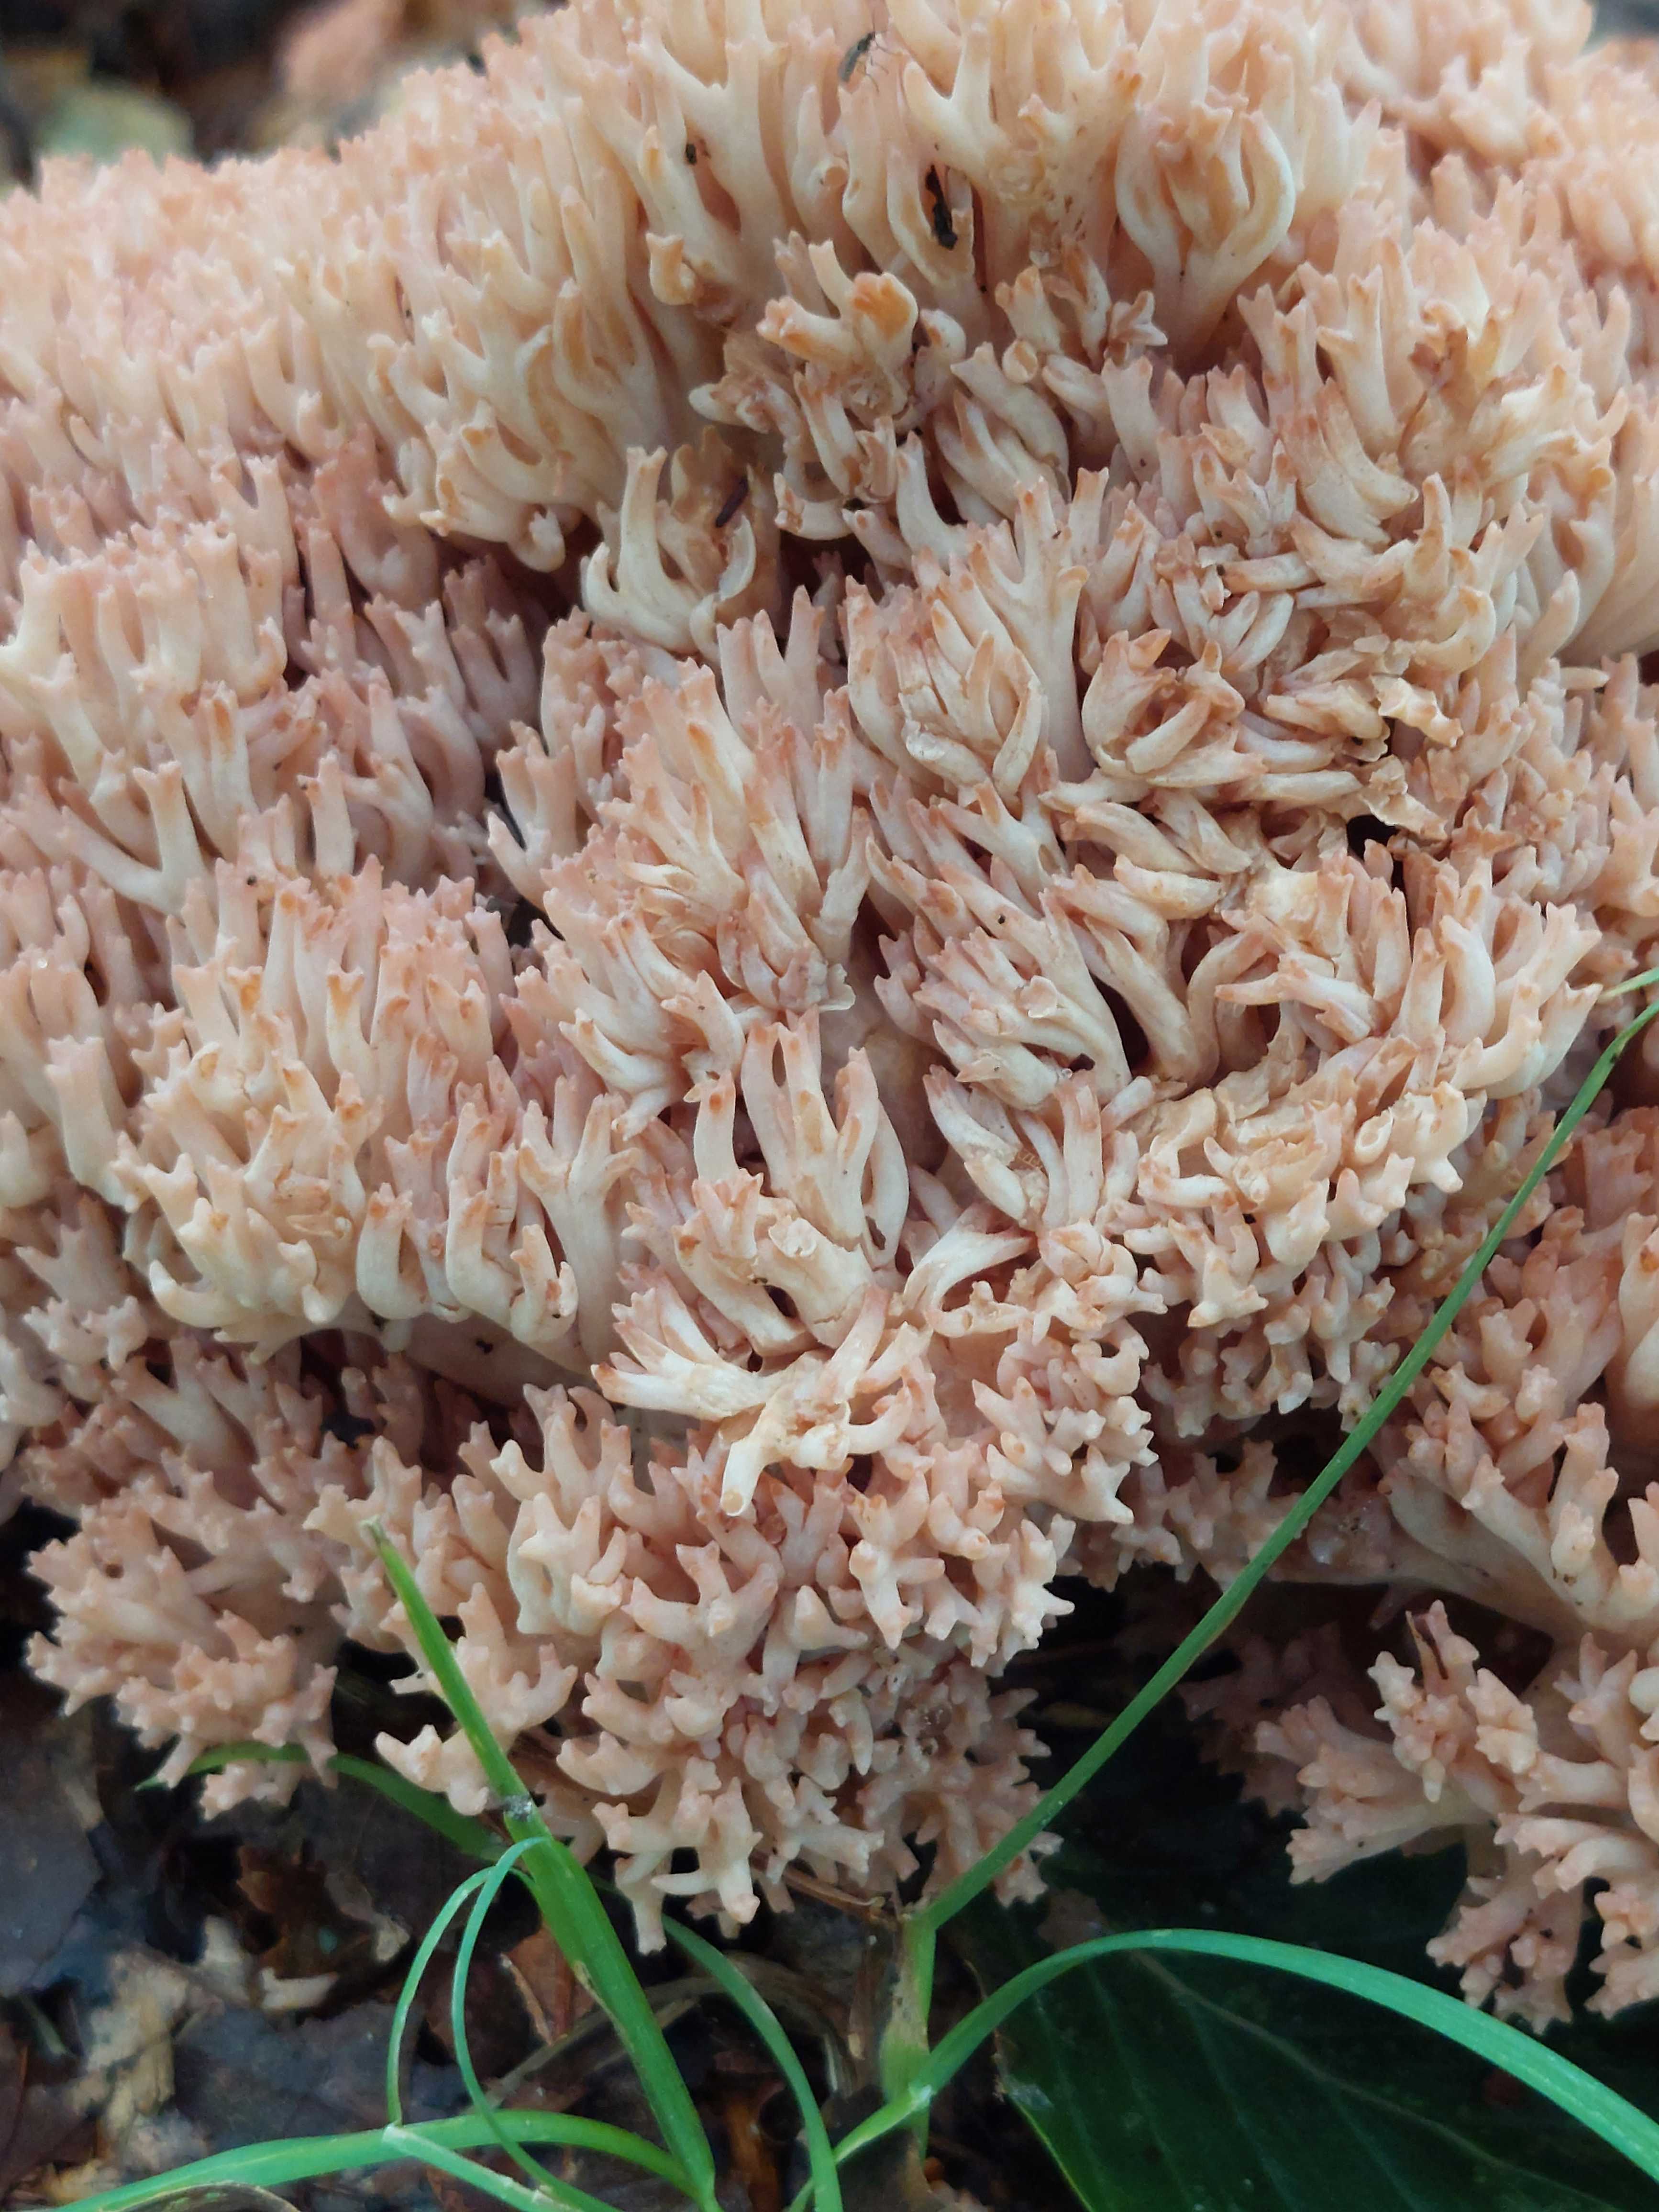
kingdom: Fungi
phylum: Basidiomycota
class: Agaricomycetes
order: Gomphales
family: Gomphaceae
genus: Ramaria
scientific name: Ramaria botrytis
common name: drue-koralsvamp
